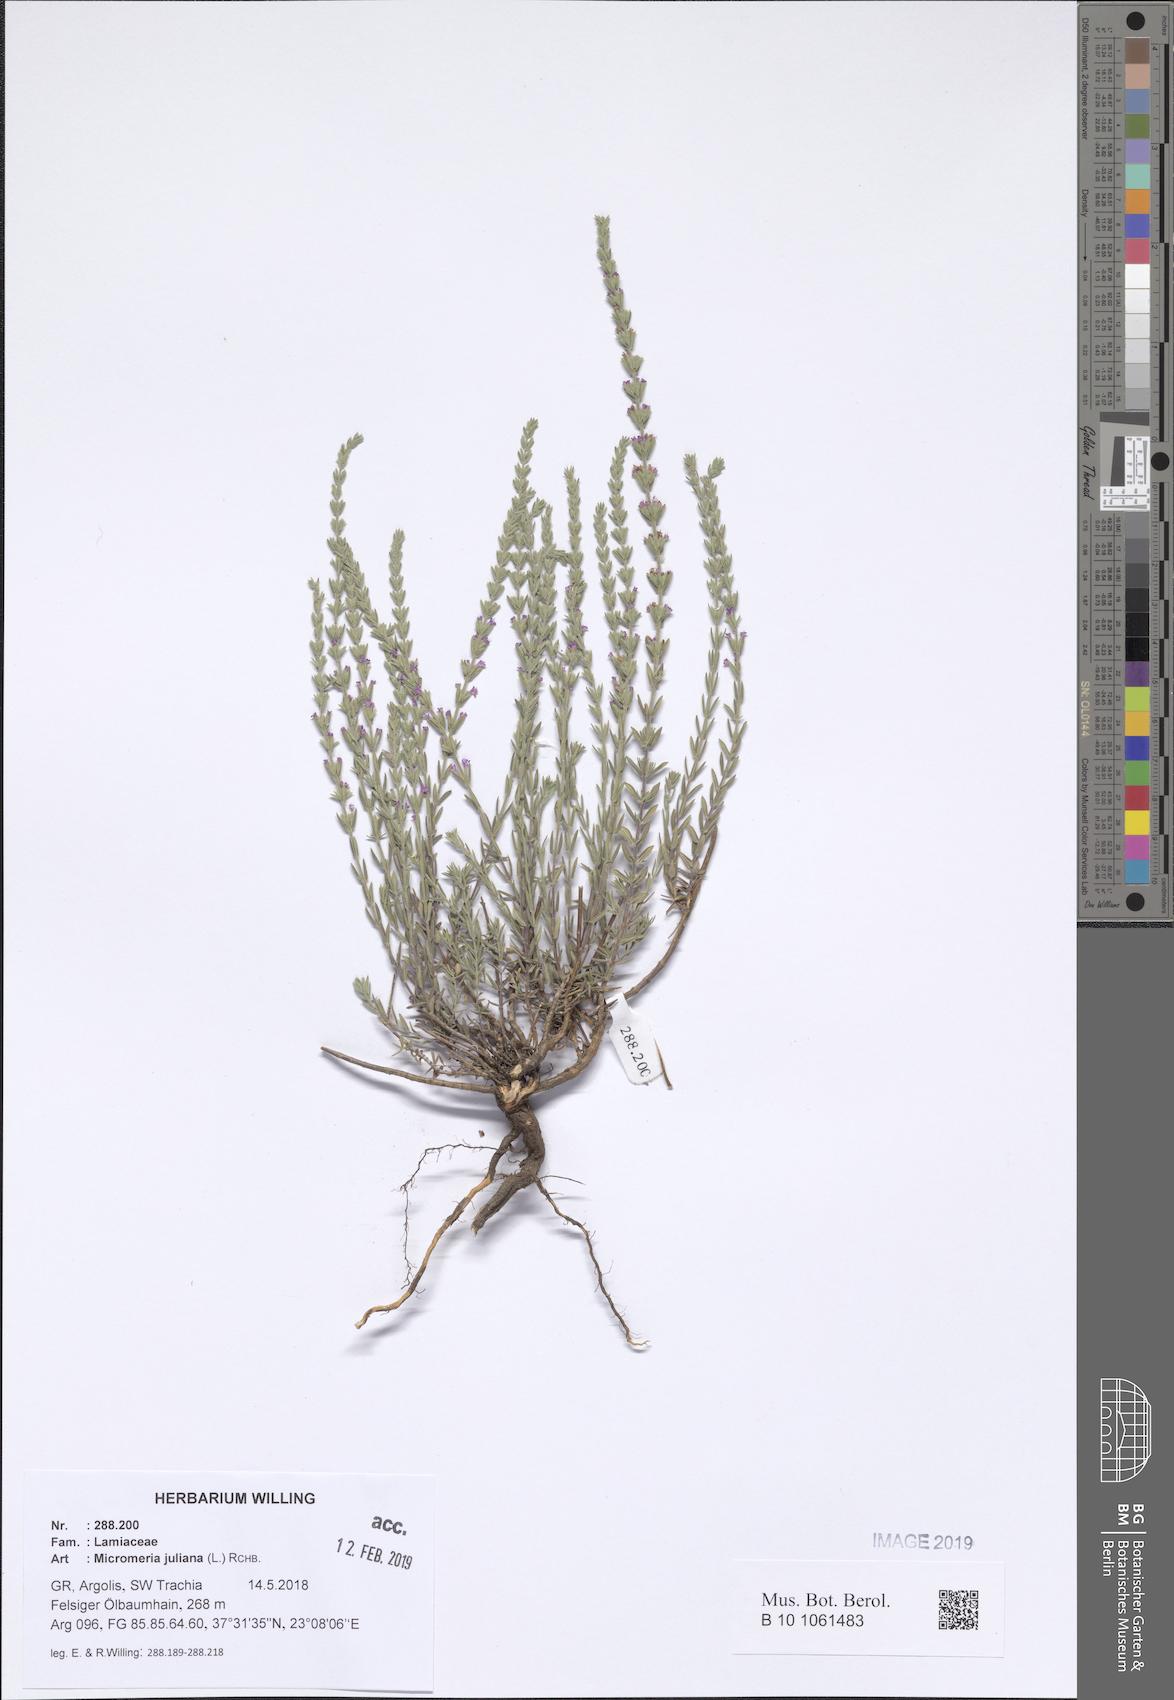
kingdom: Plantae
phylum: Tracheophyta
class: Magnoliopsida
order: Lamiales
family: Lamiaceae
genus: Micromeria
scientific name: Micromeria juliana
